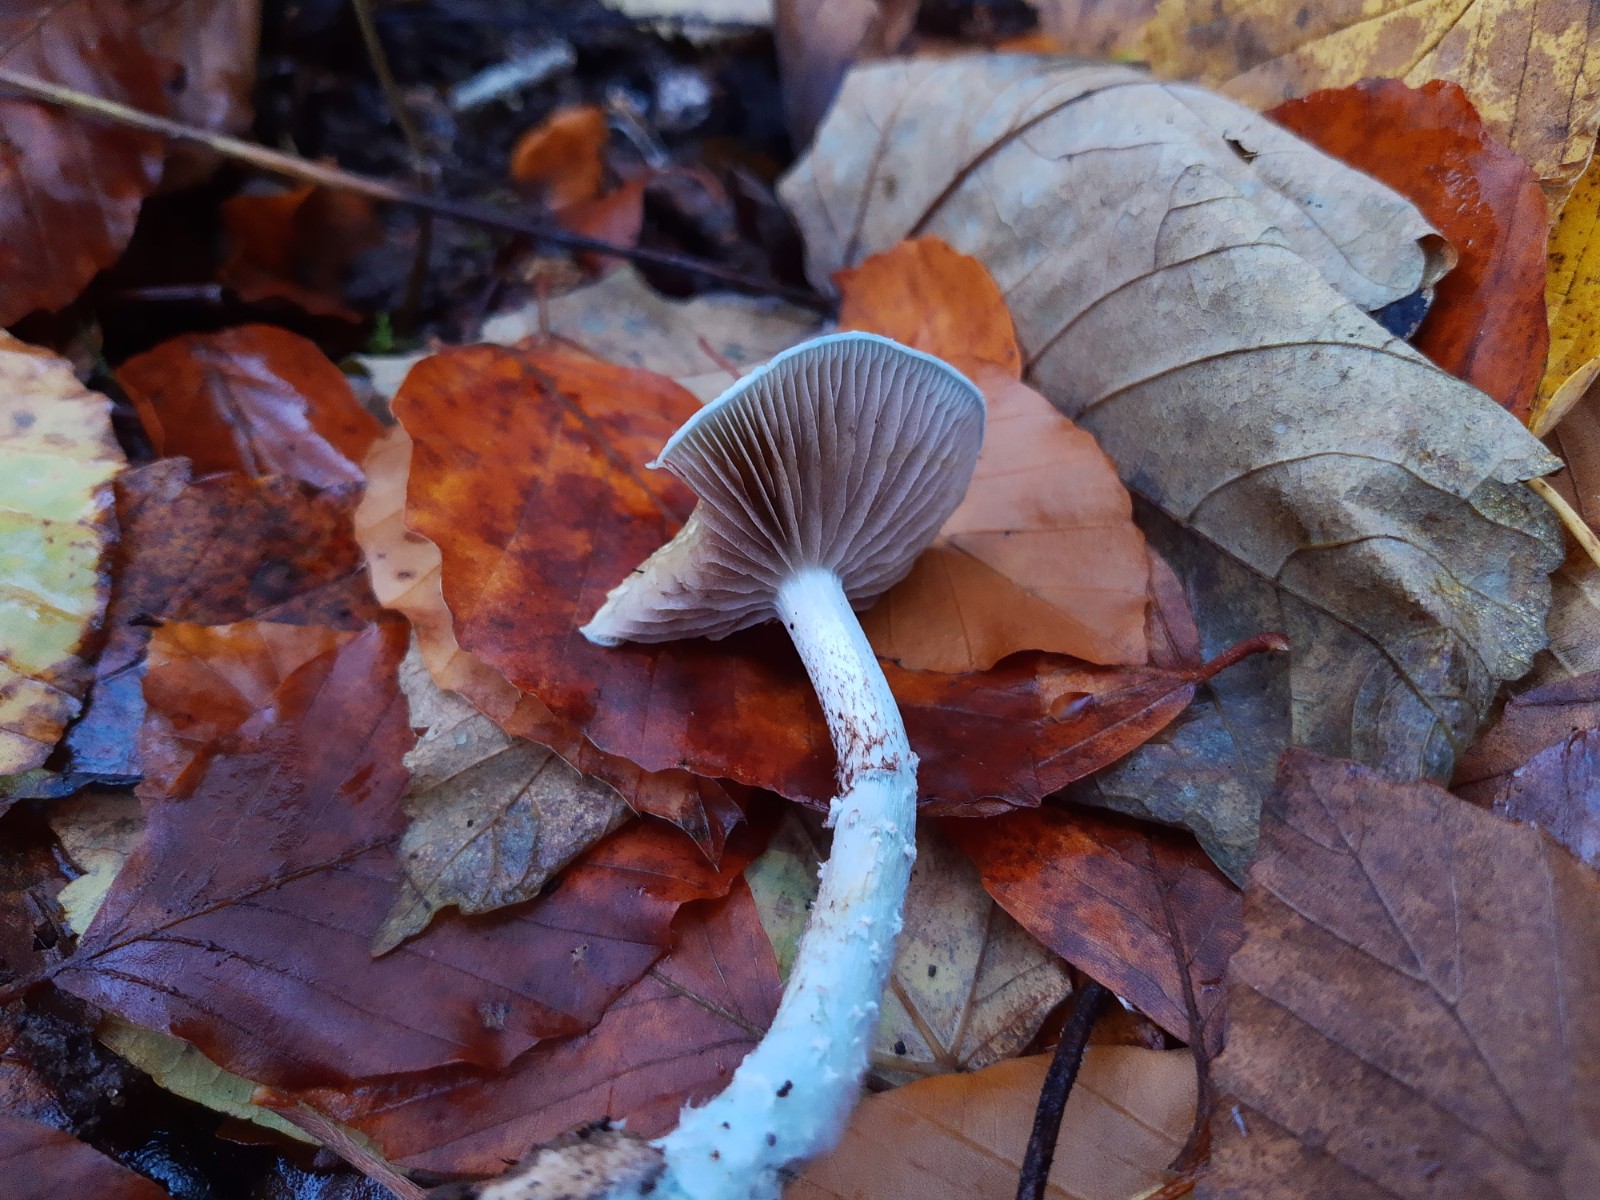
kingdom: Fungi
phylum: Basidiomycota
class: Agaricomycetes
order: Agaricales
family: Strophariaceae
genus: Stropharia
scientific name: Stropharia cyanea
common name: blågrøn bredblad
